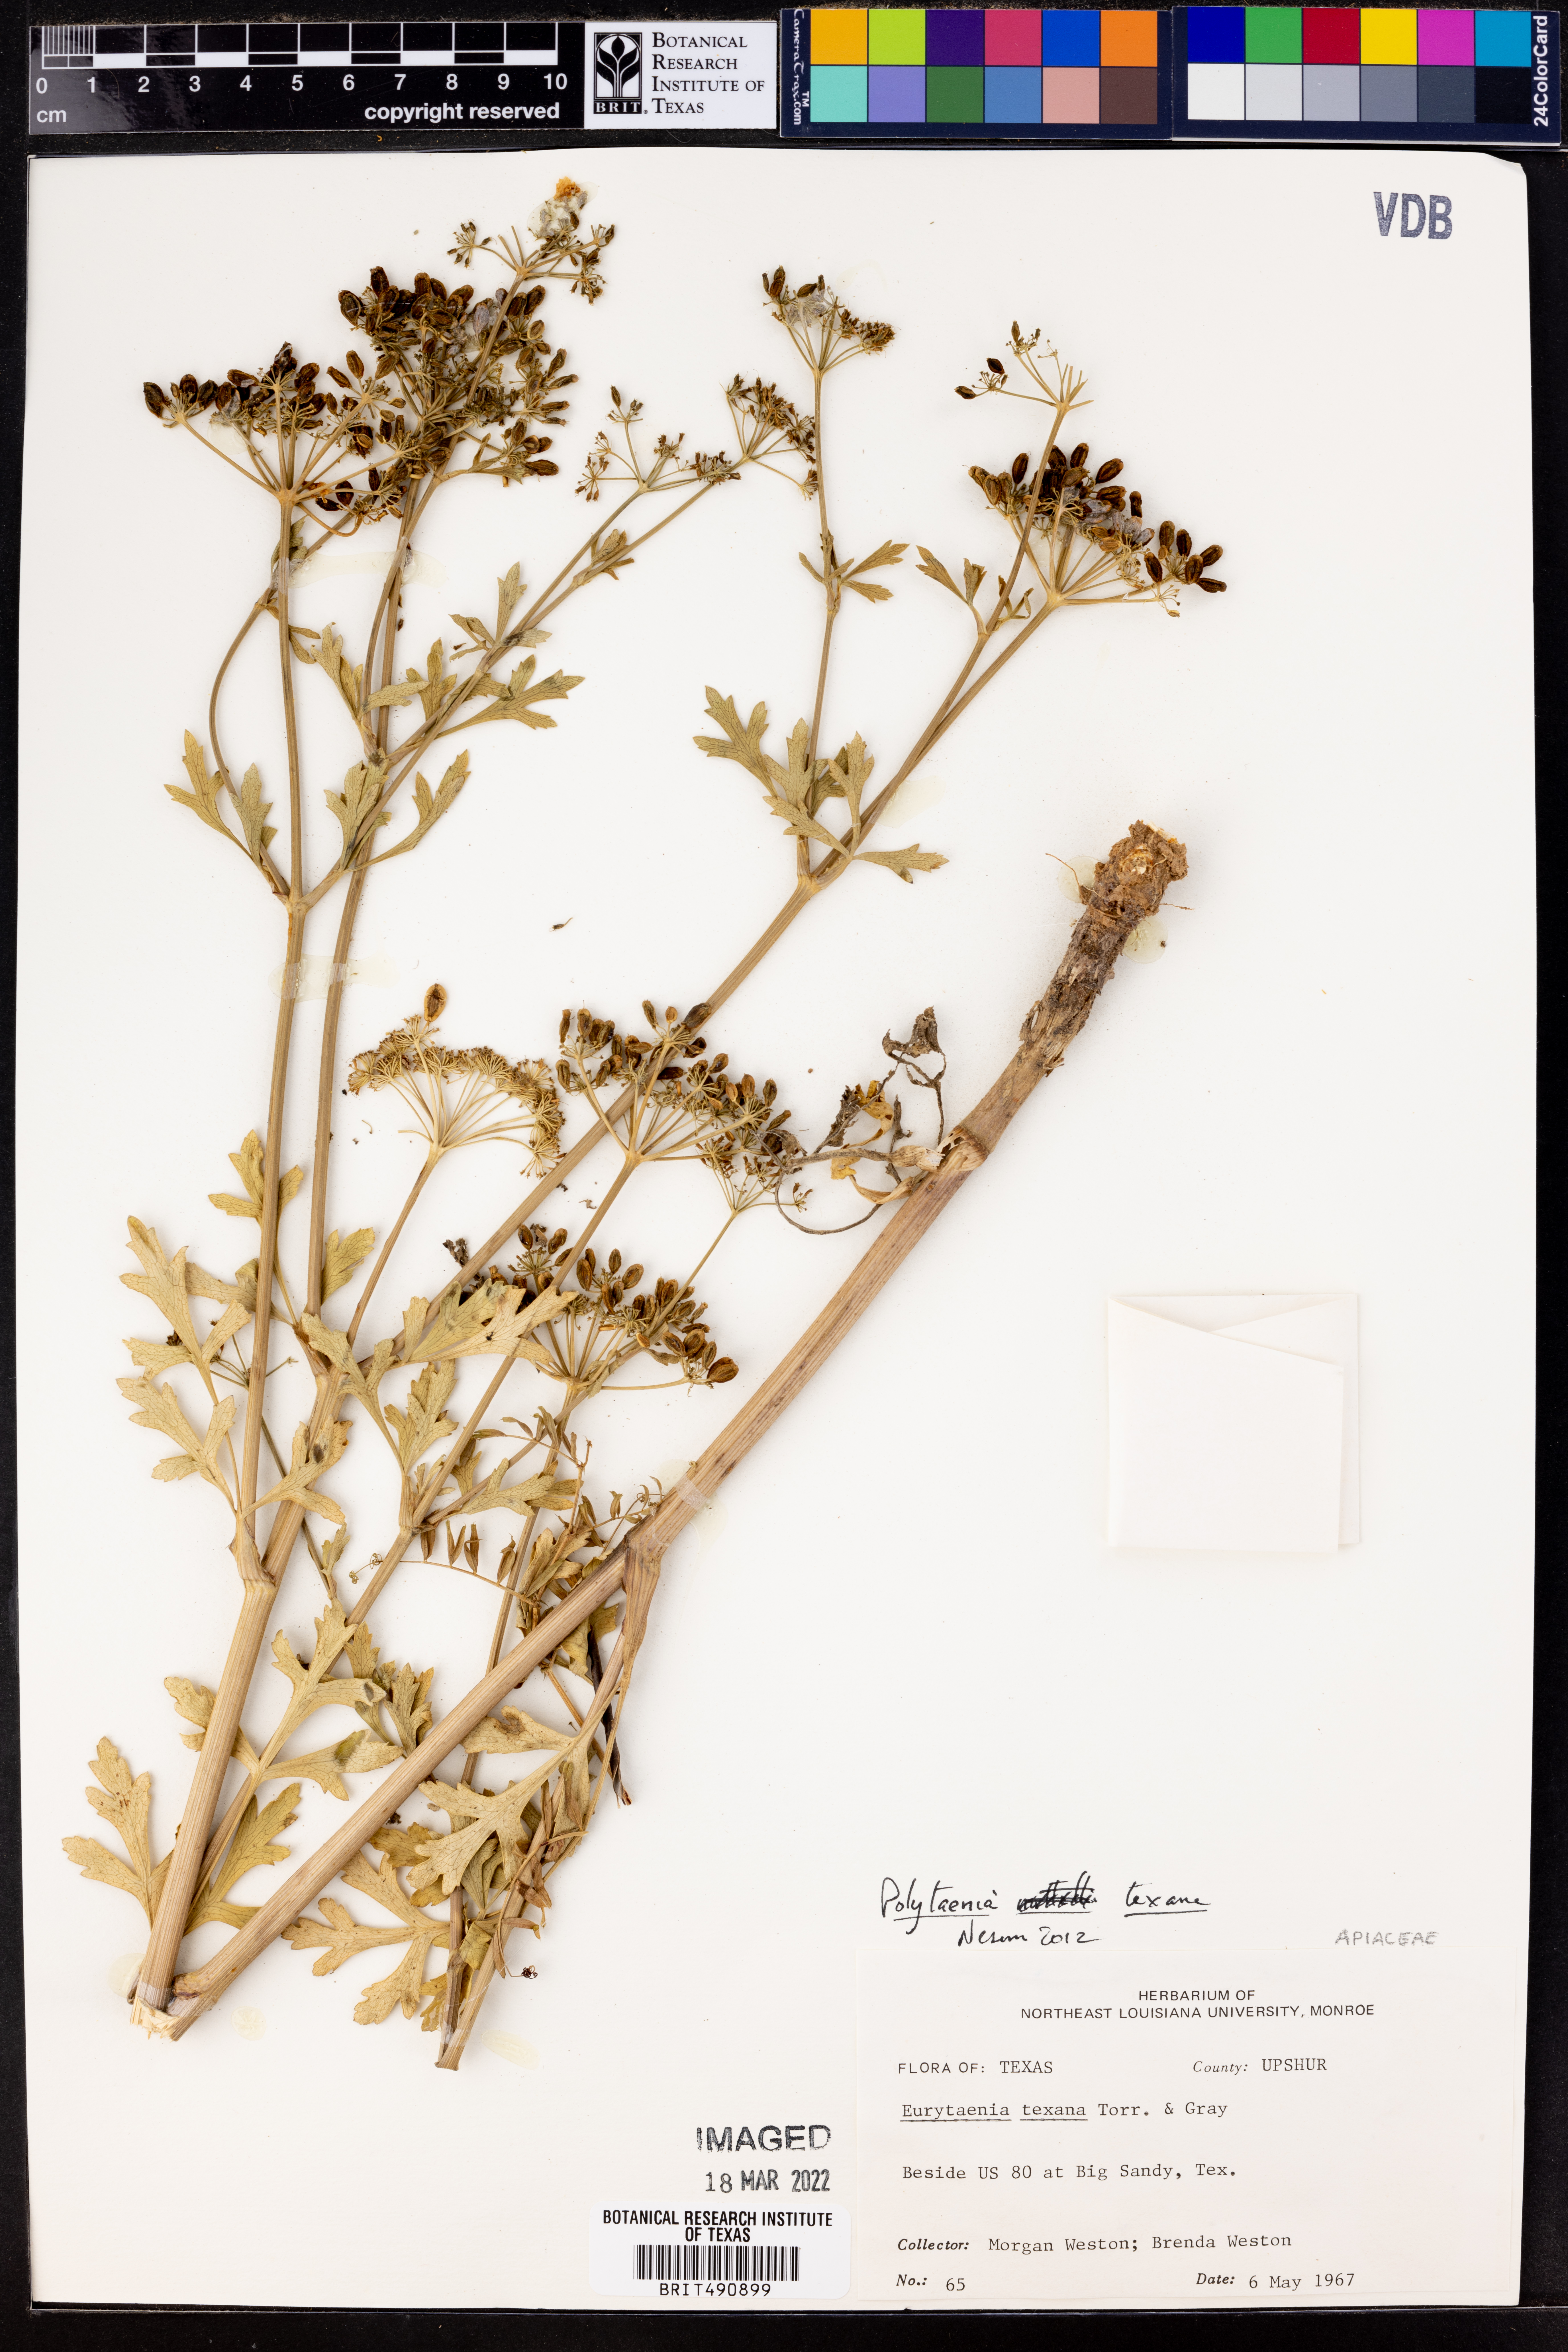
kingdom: Plantae
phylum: Tracheophyta
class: Magnoliopsida
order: Apiales
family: Apiaceae
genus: Polytaenia
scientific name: Polytaenia texana
